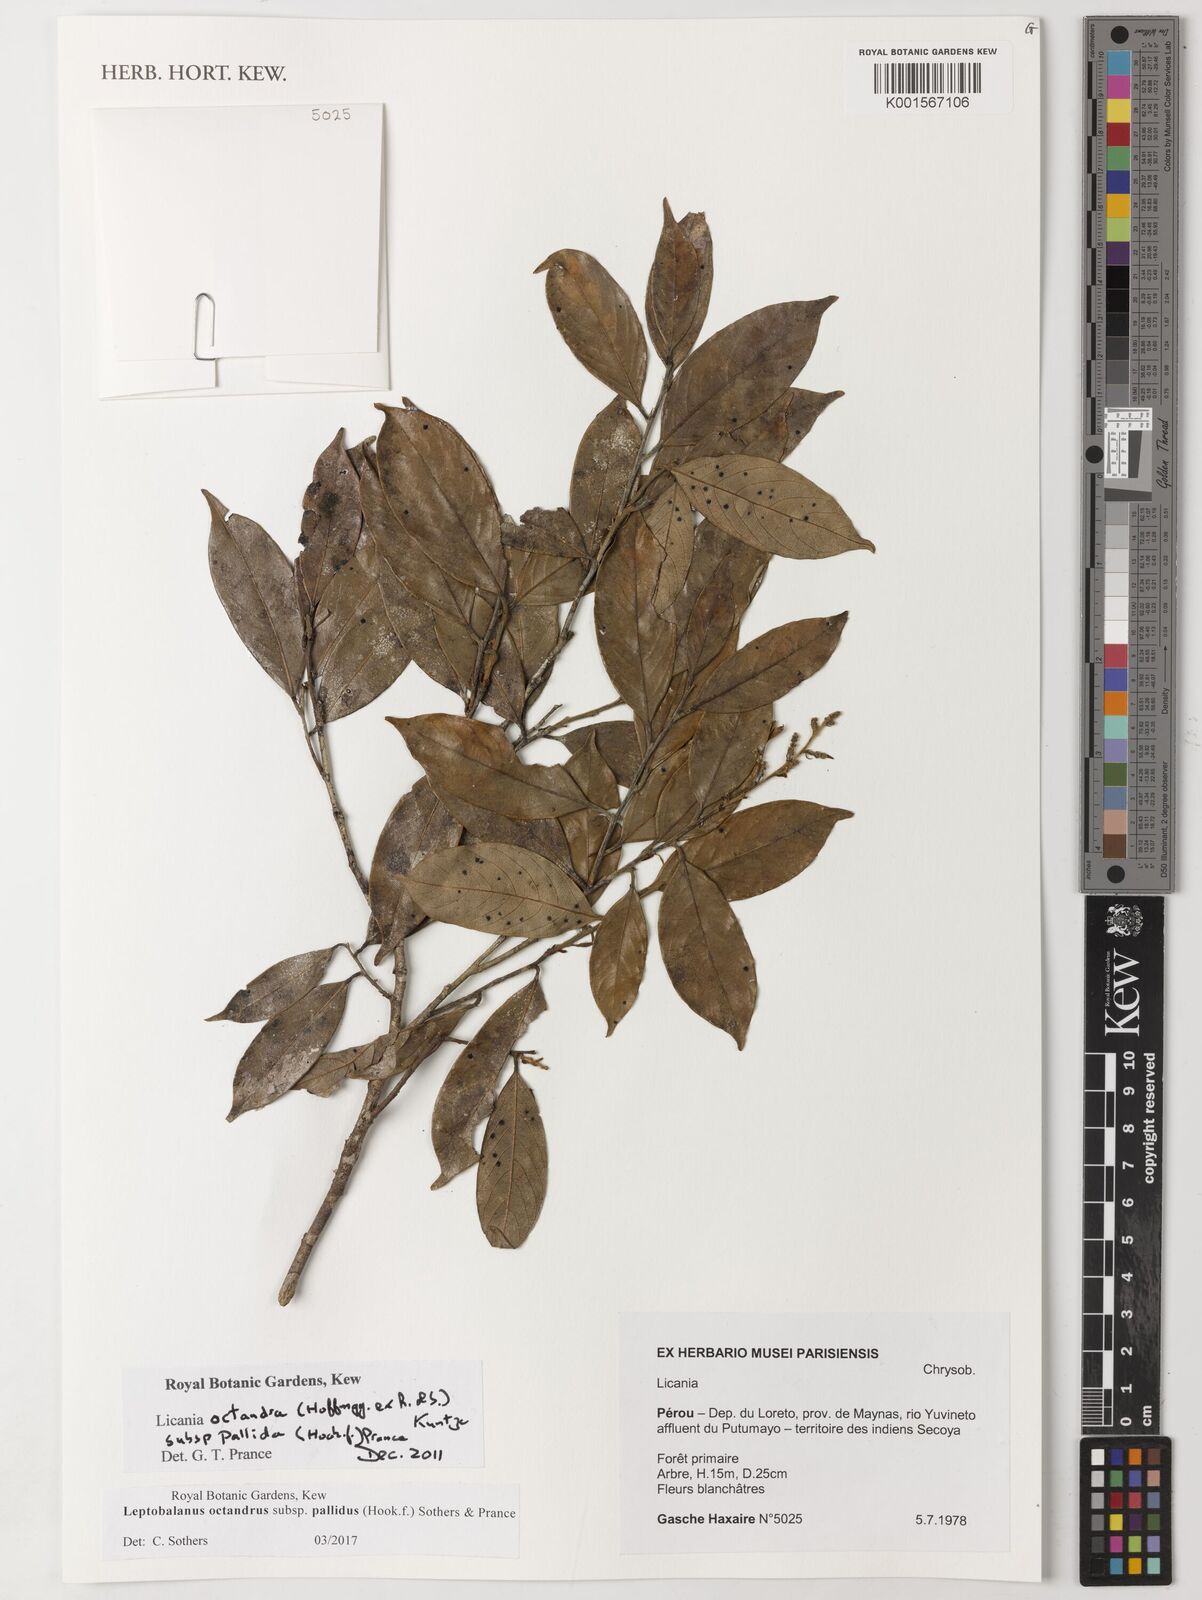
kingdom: Plantae
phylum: Tracheophyta
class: Magnoliopsida
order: Malpighiales
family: Chrysobalanaceae
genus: Leptobalanus
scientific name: Leptobalanus octandrus
